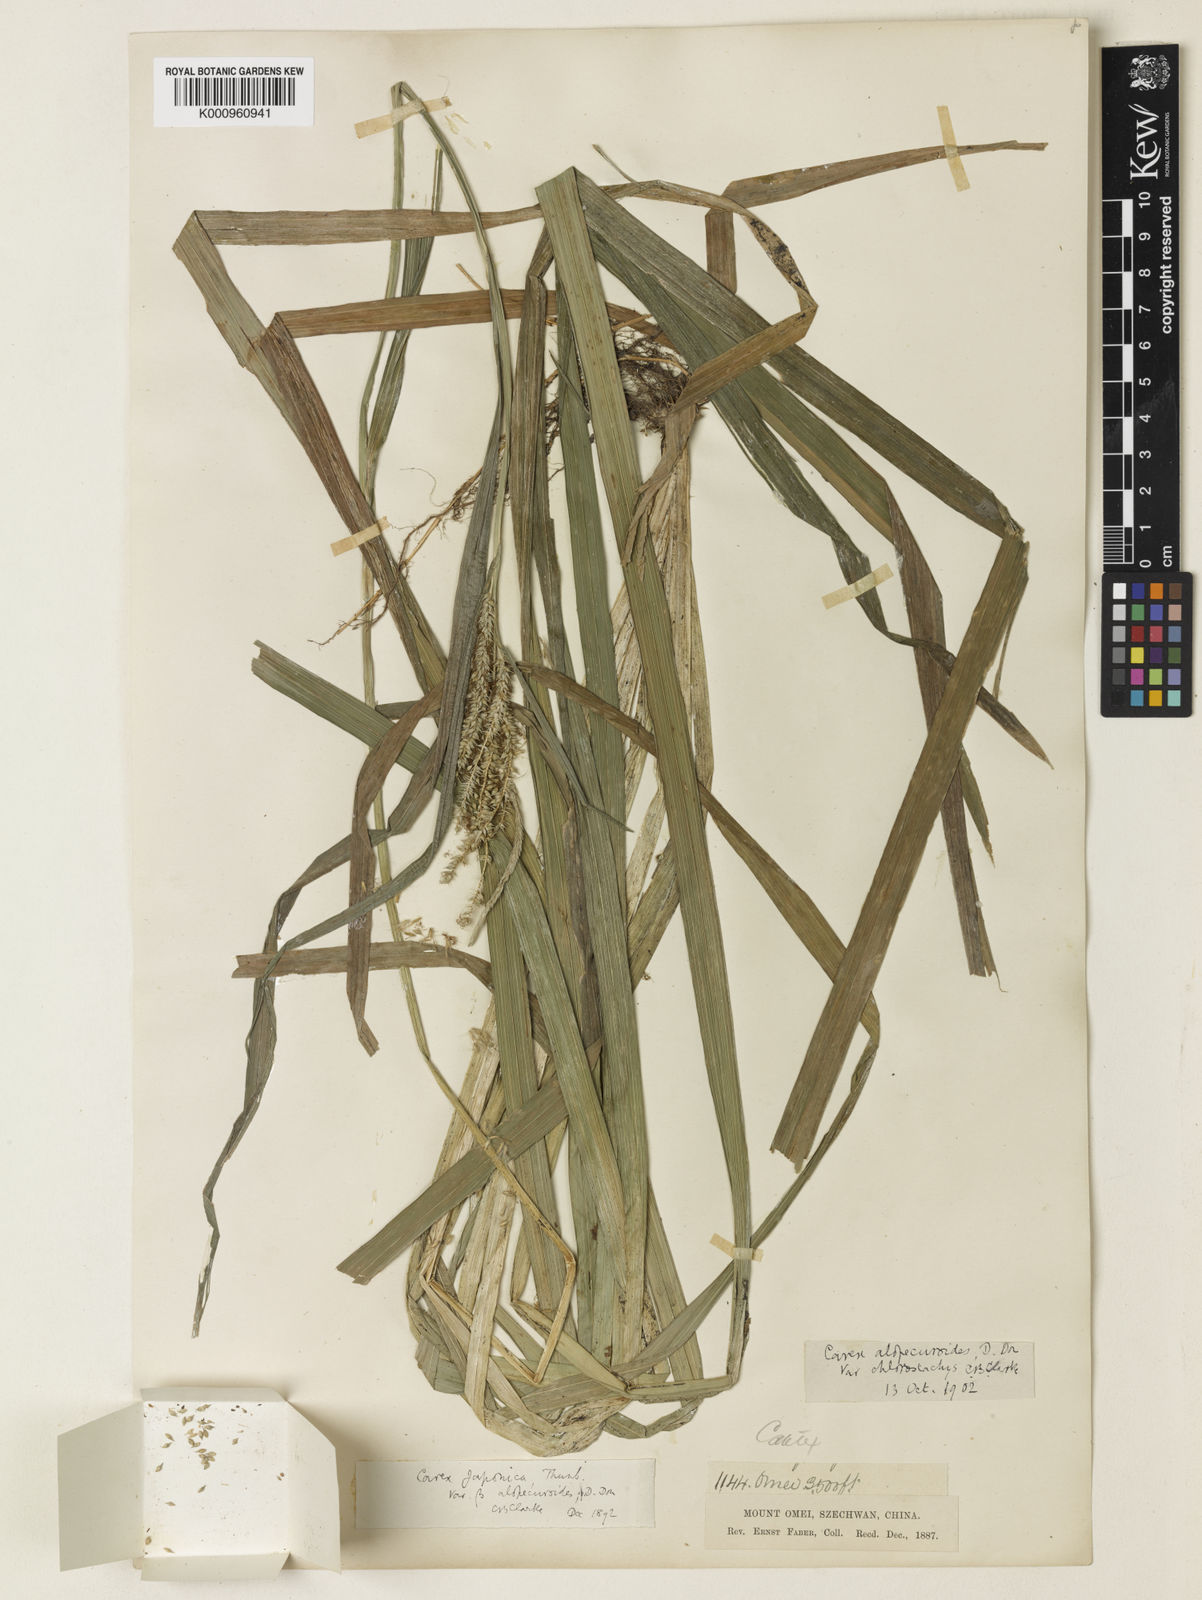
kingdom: Plantae
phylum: Tracheophyta
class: Liliopsida
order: Poales
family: Cyperaceae
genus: Carex
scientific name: Carex japonica
